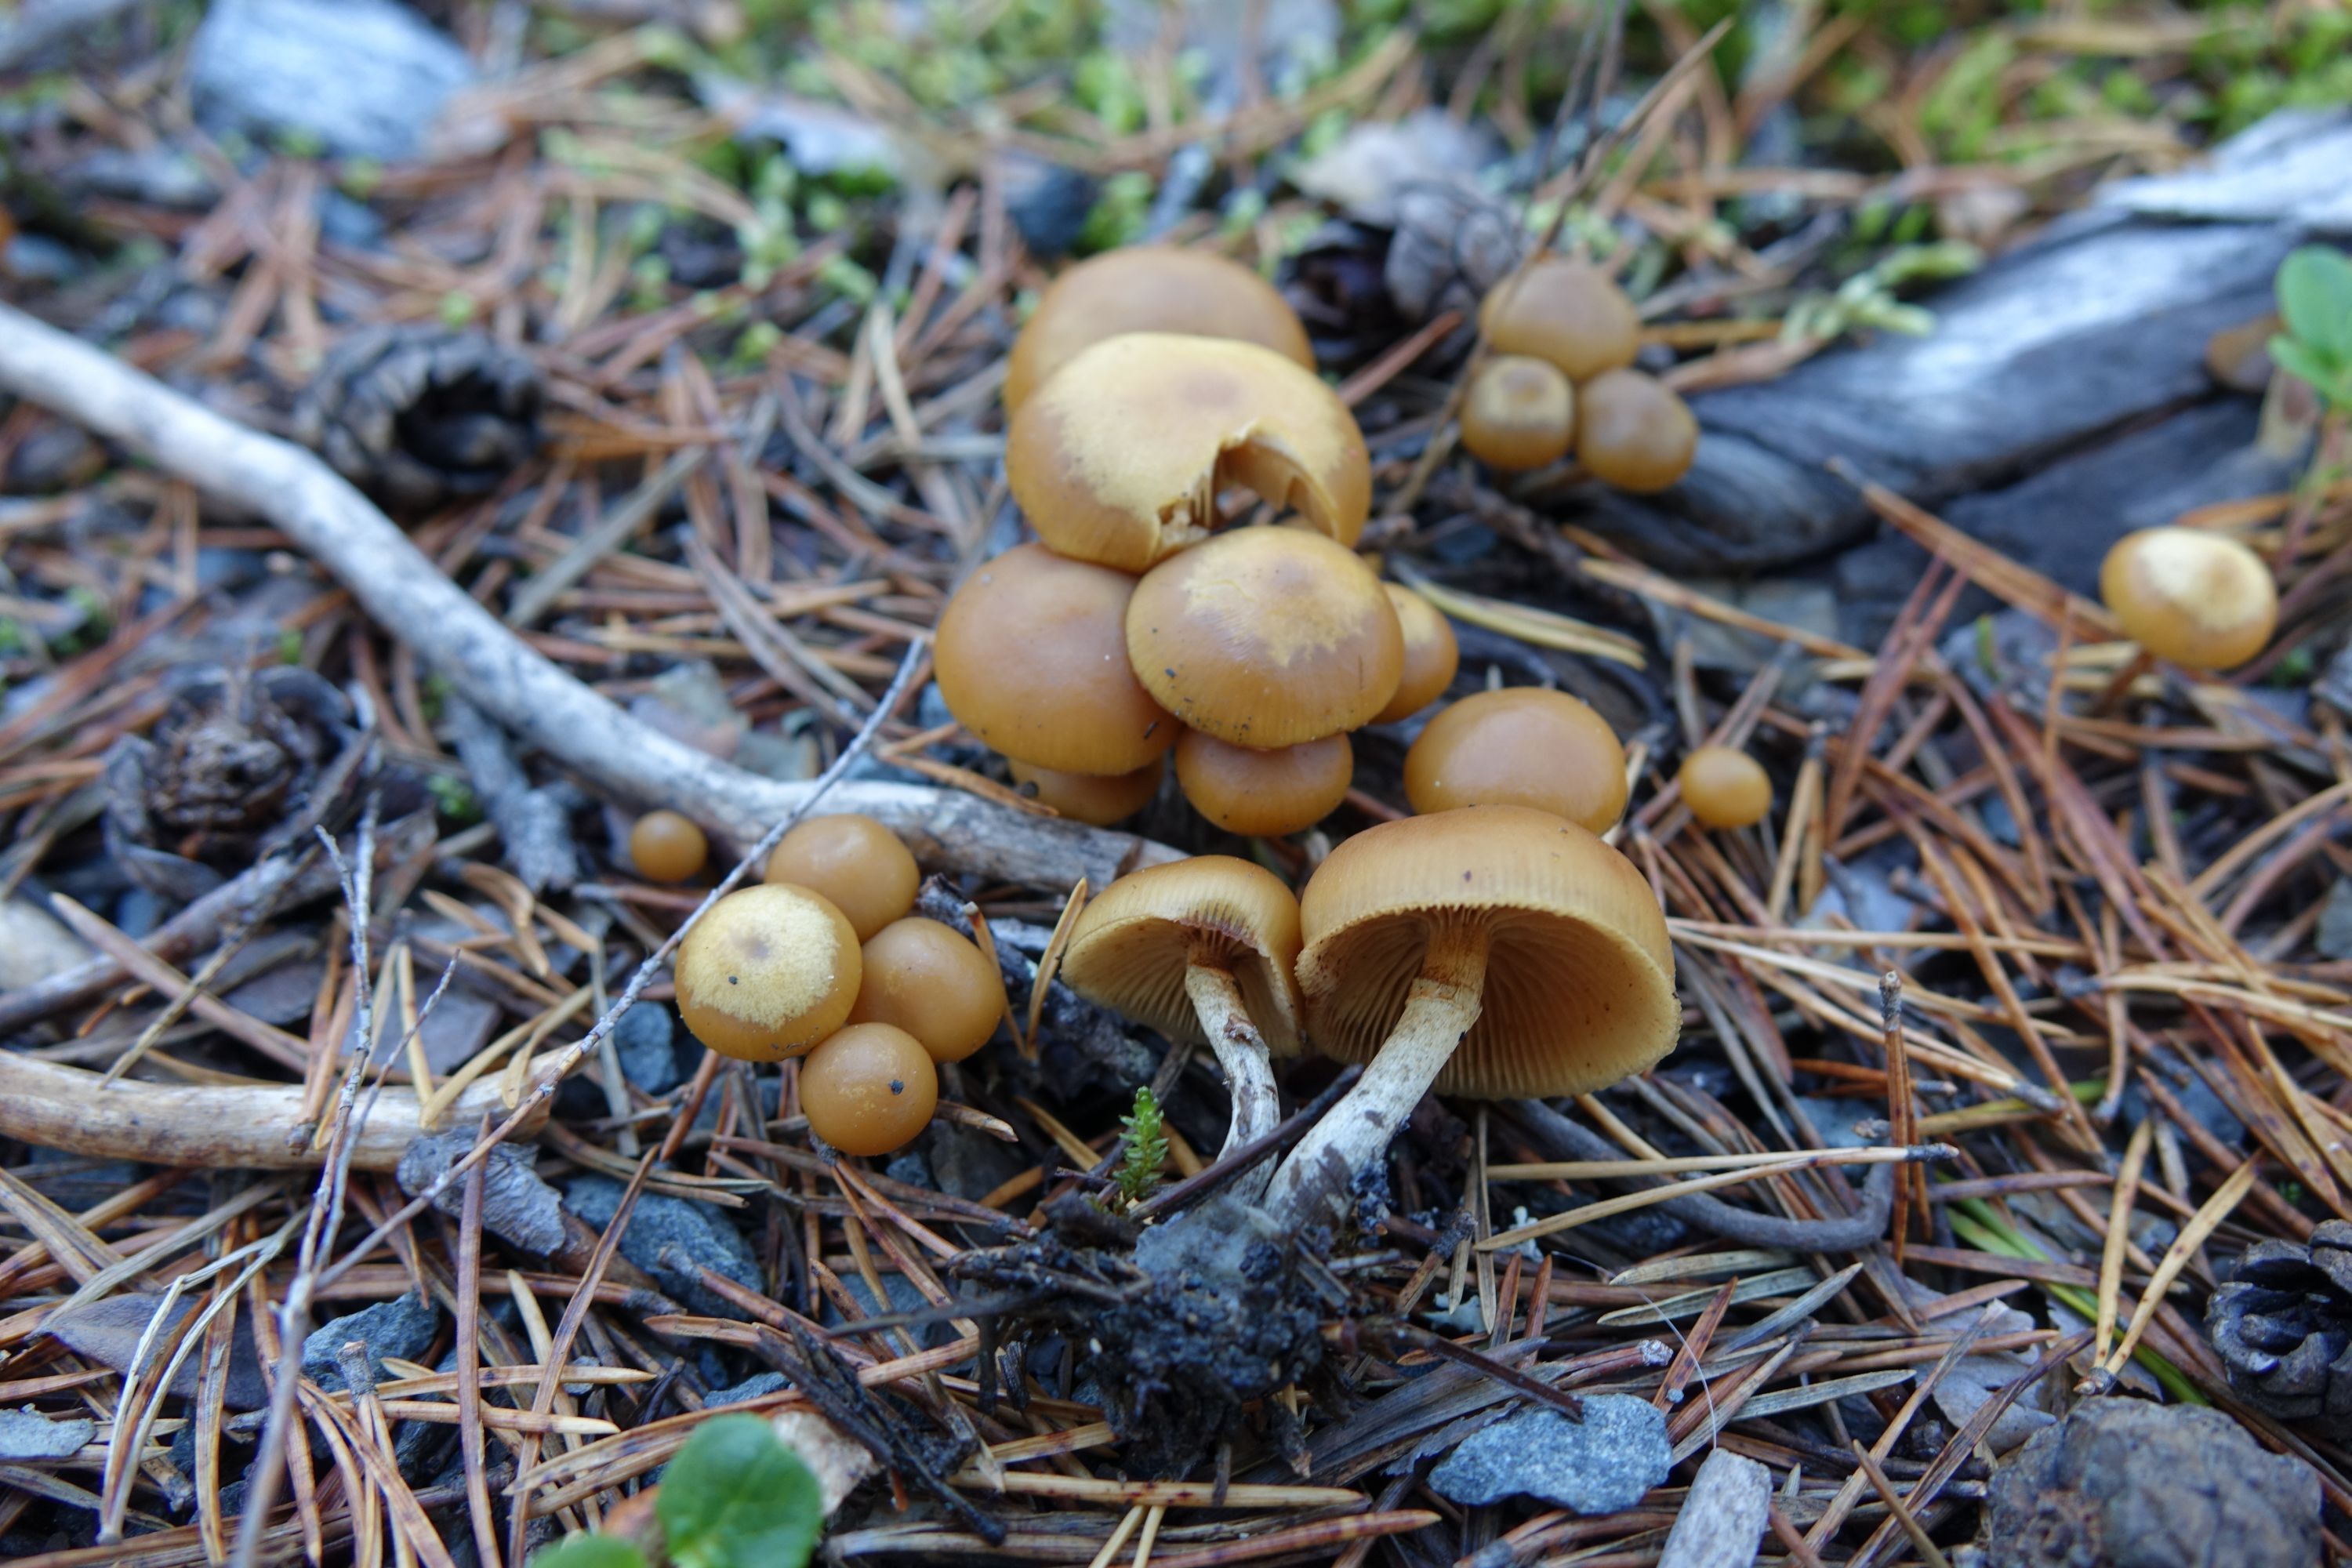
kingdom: Fungi
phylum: Basidiomycota
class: Agaricomycetes
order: Agaricales
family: Hymenogastraceae
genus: Galerina
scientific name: Galerina marginata
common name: Funeral bell
